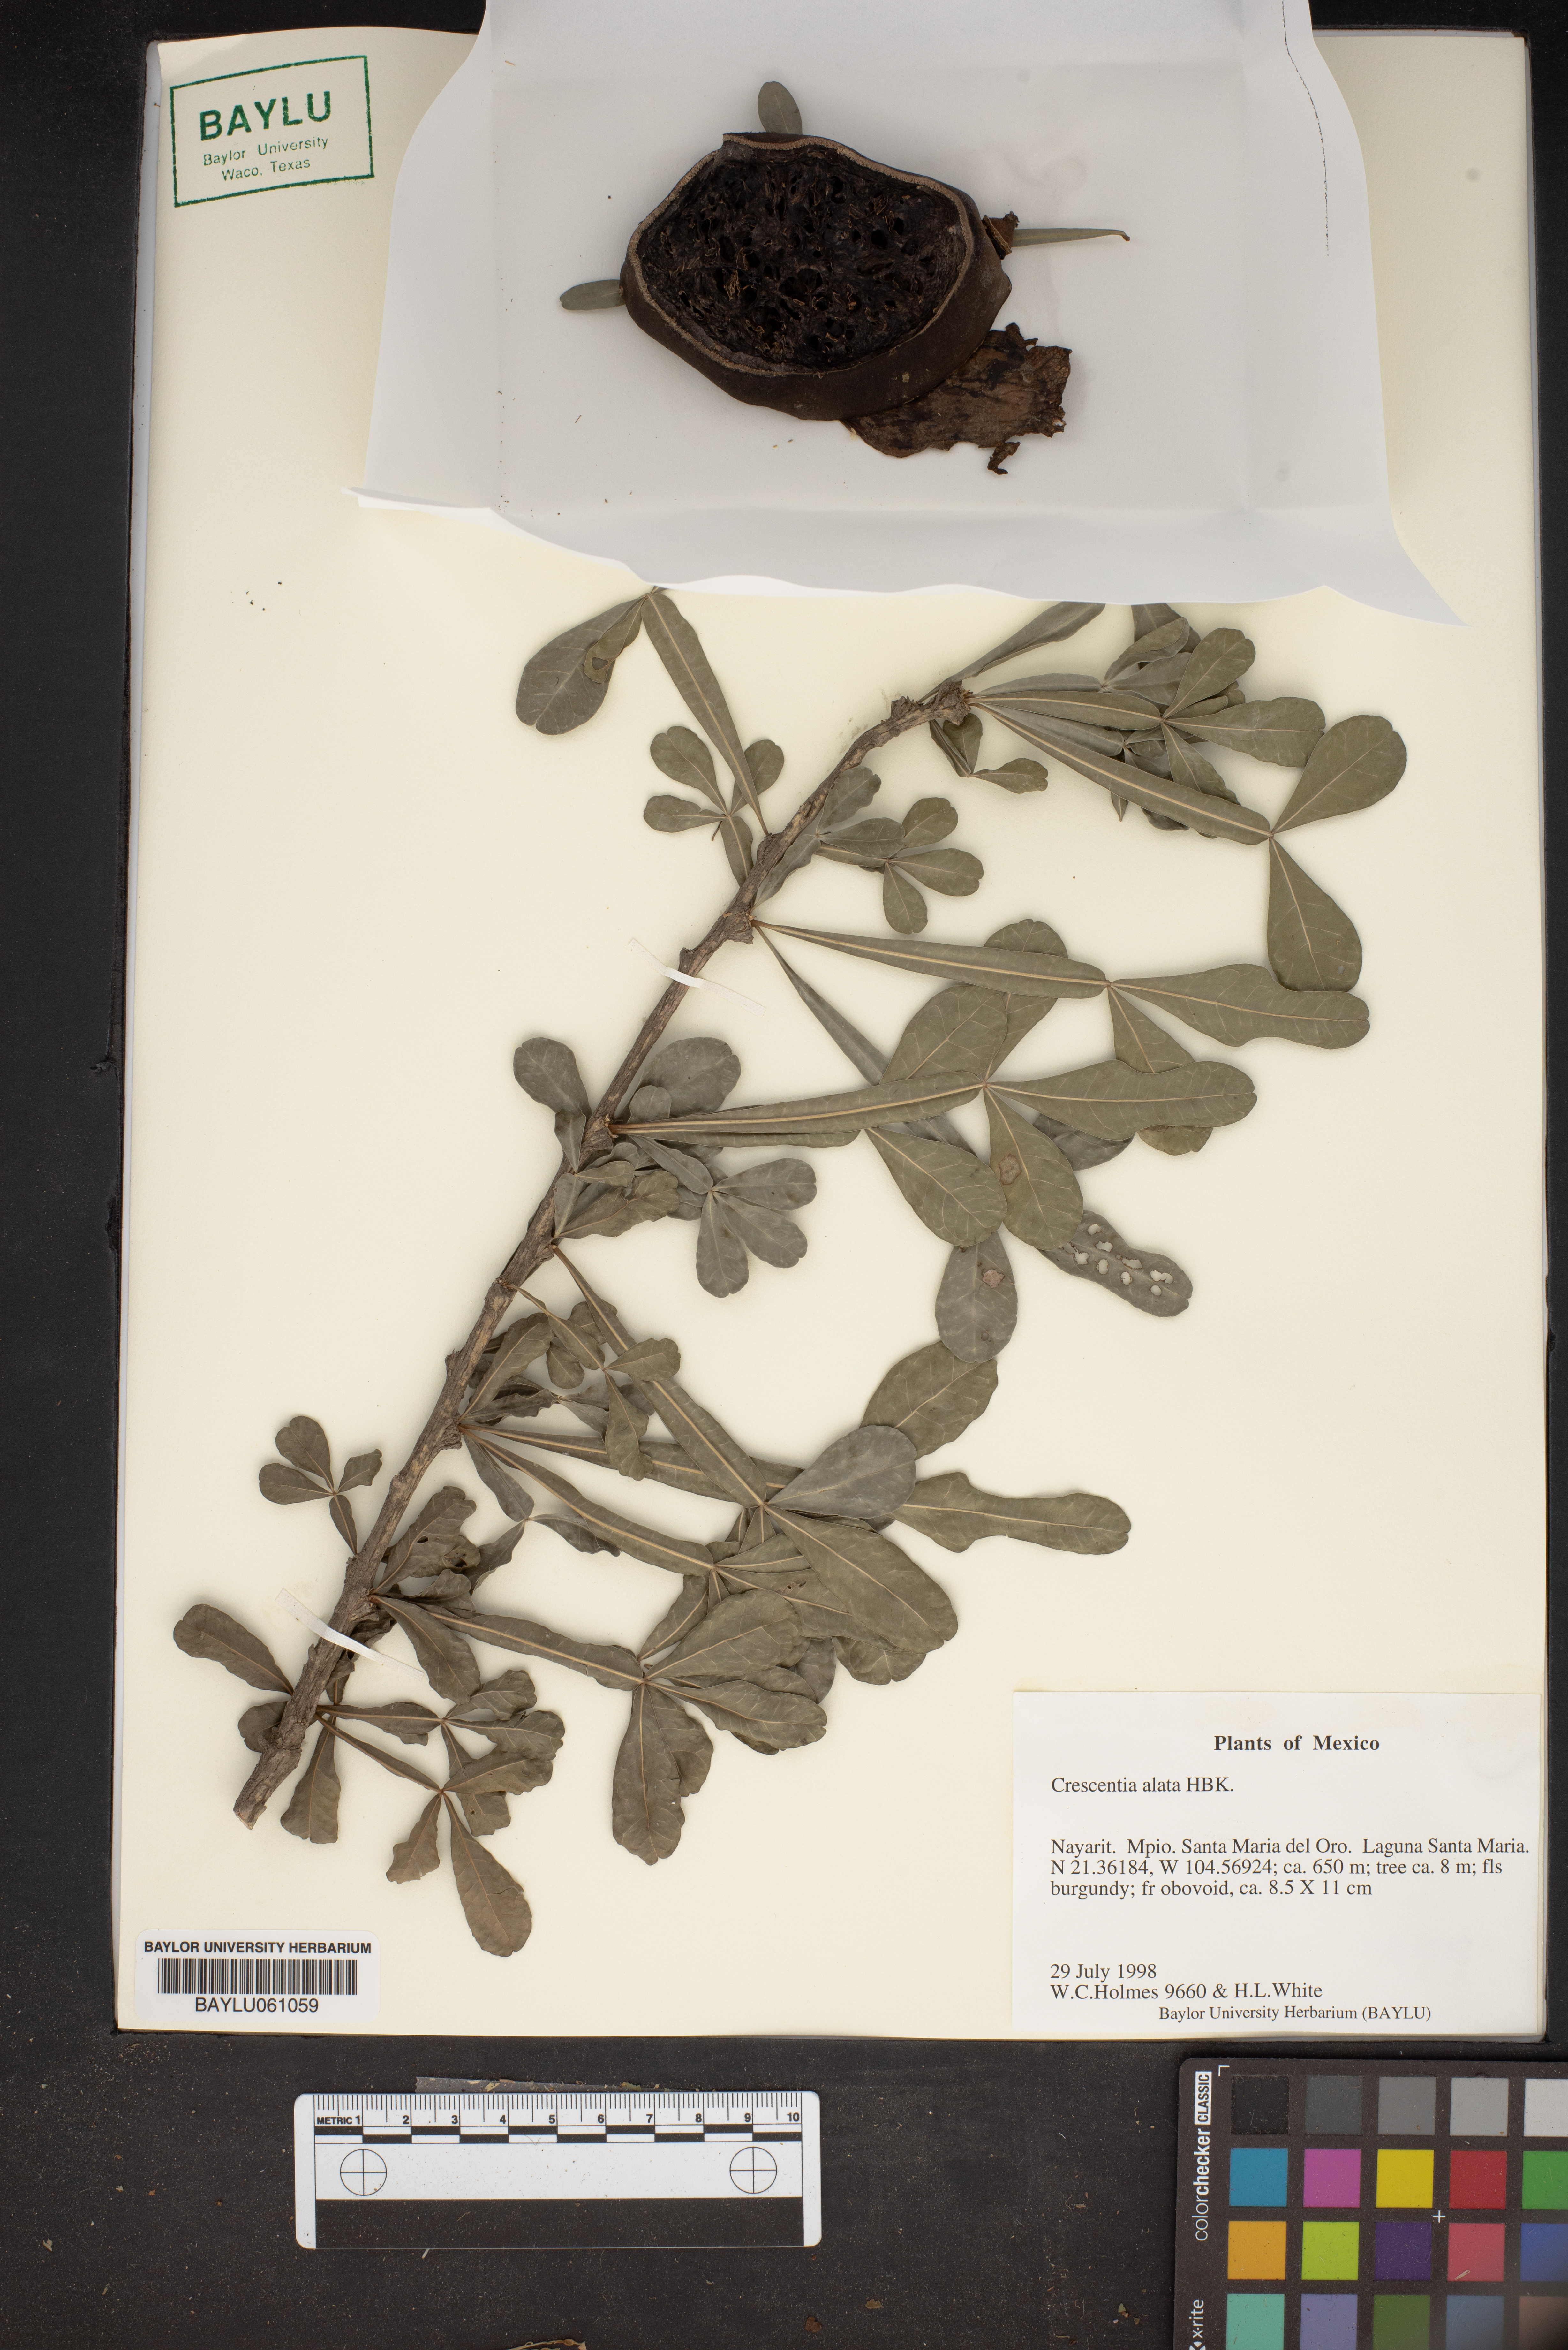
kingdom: Plantae
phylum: Tracheophyta
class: Magnoliopsida
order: Lamiales
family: Bignoniaceae
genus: Crescentia
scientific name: Crescentia alata
